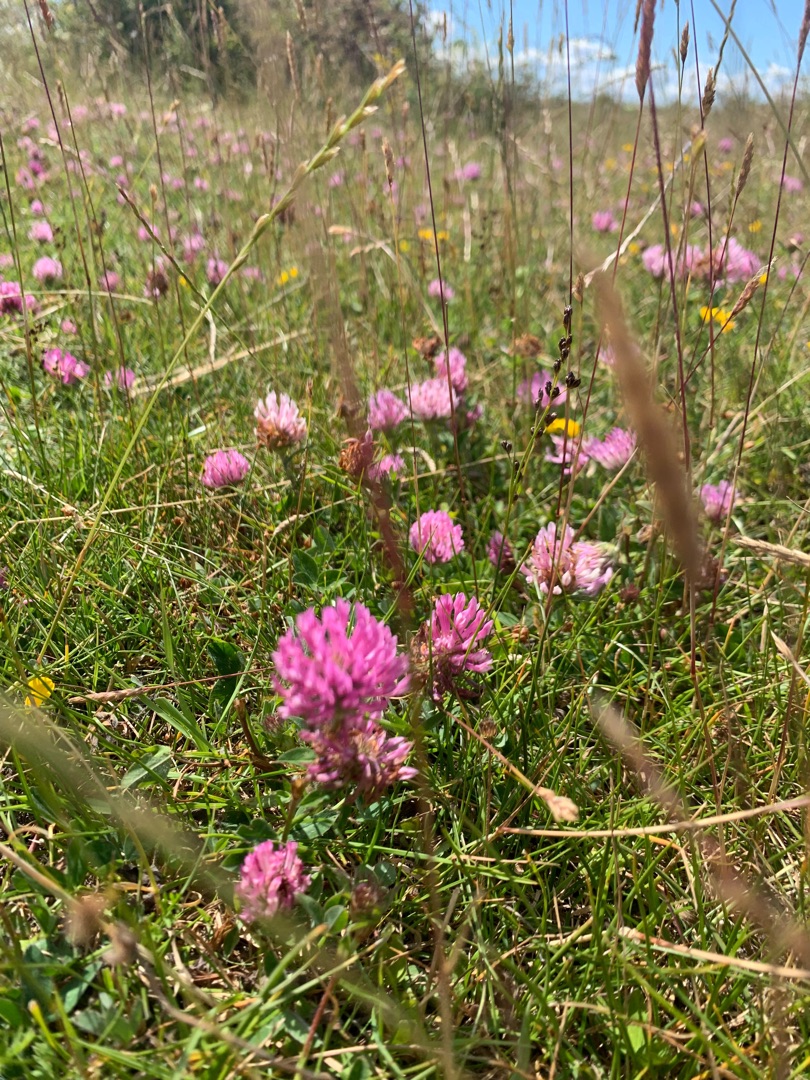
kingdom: Plantae
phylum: Tracheophyta
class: Magnoliopsida
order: Fabales
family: Fabaceae
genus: Trifolium
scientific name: Trifolium pratense
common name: Rød-kløver
